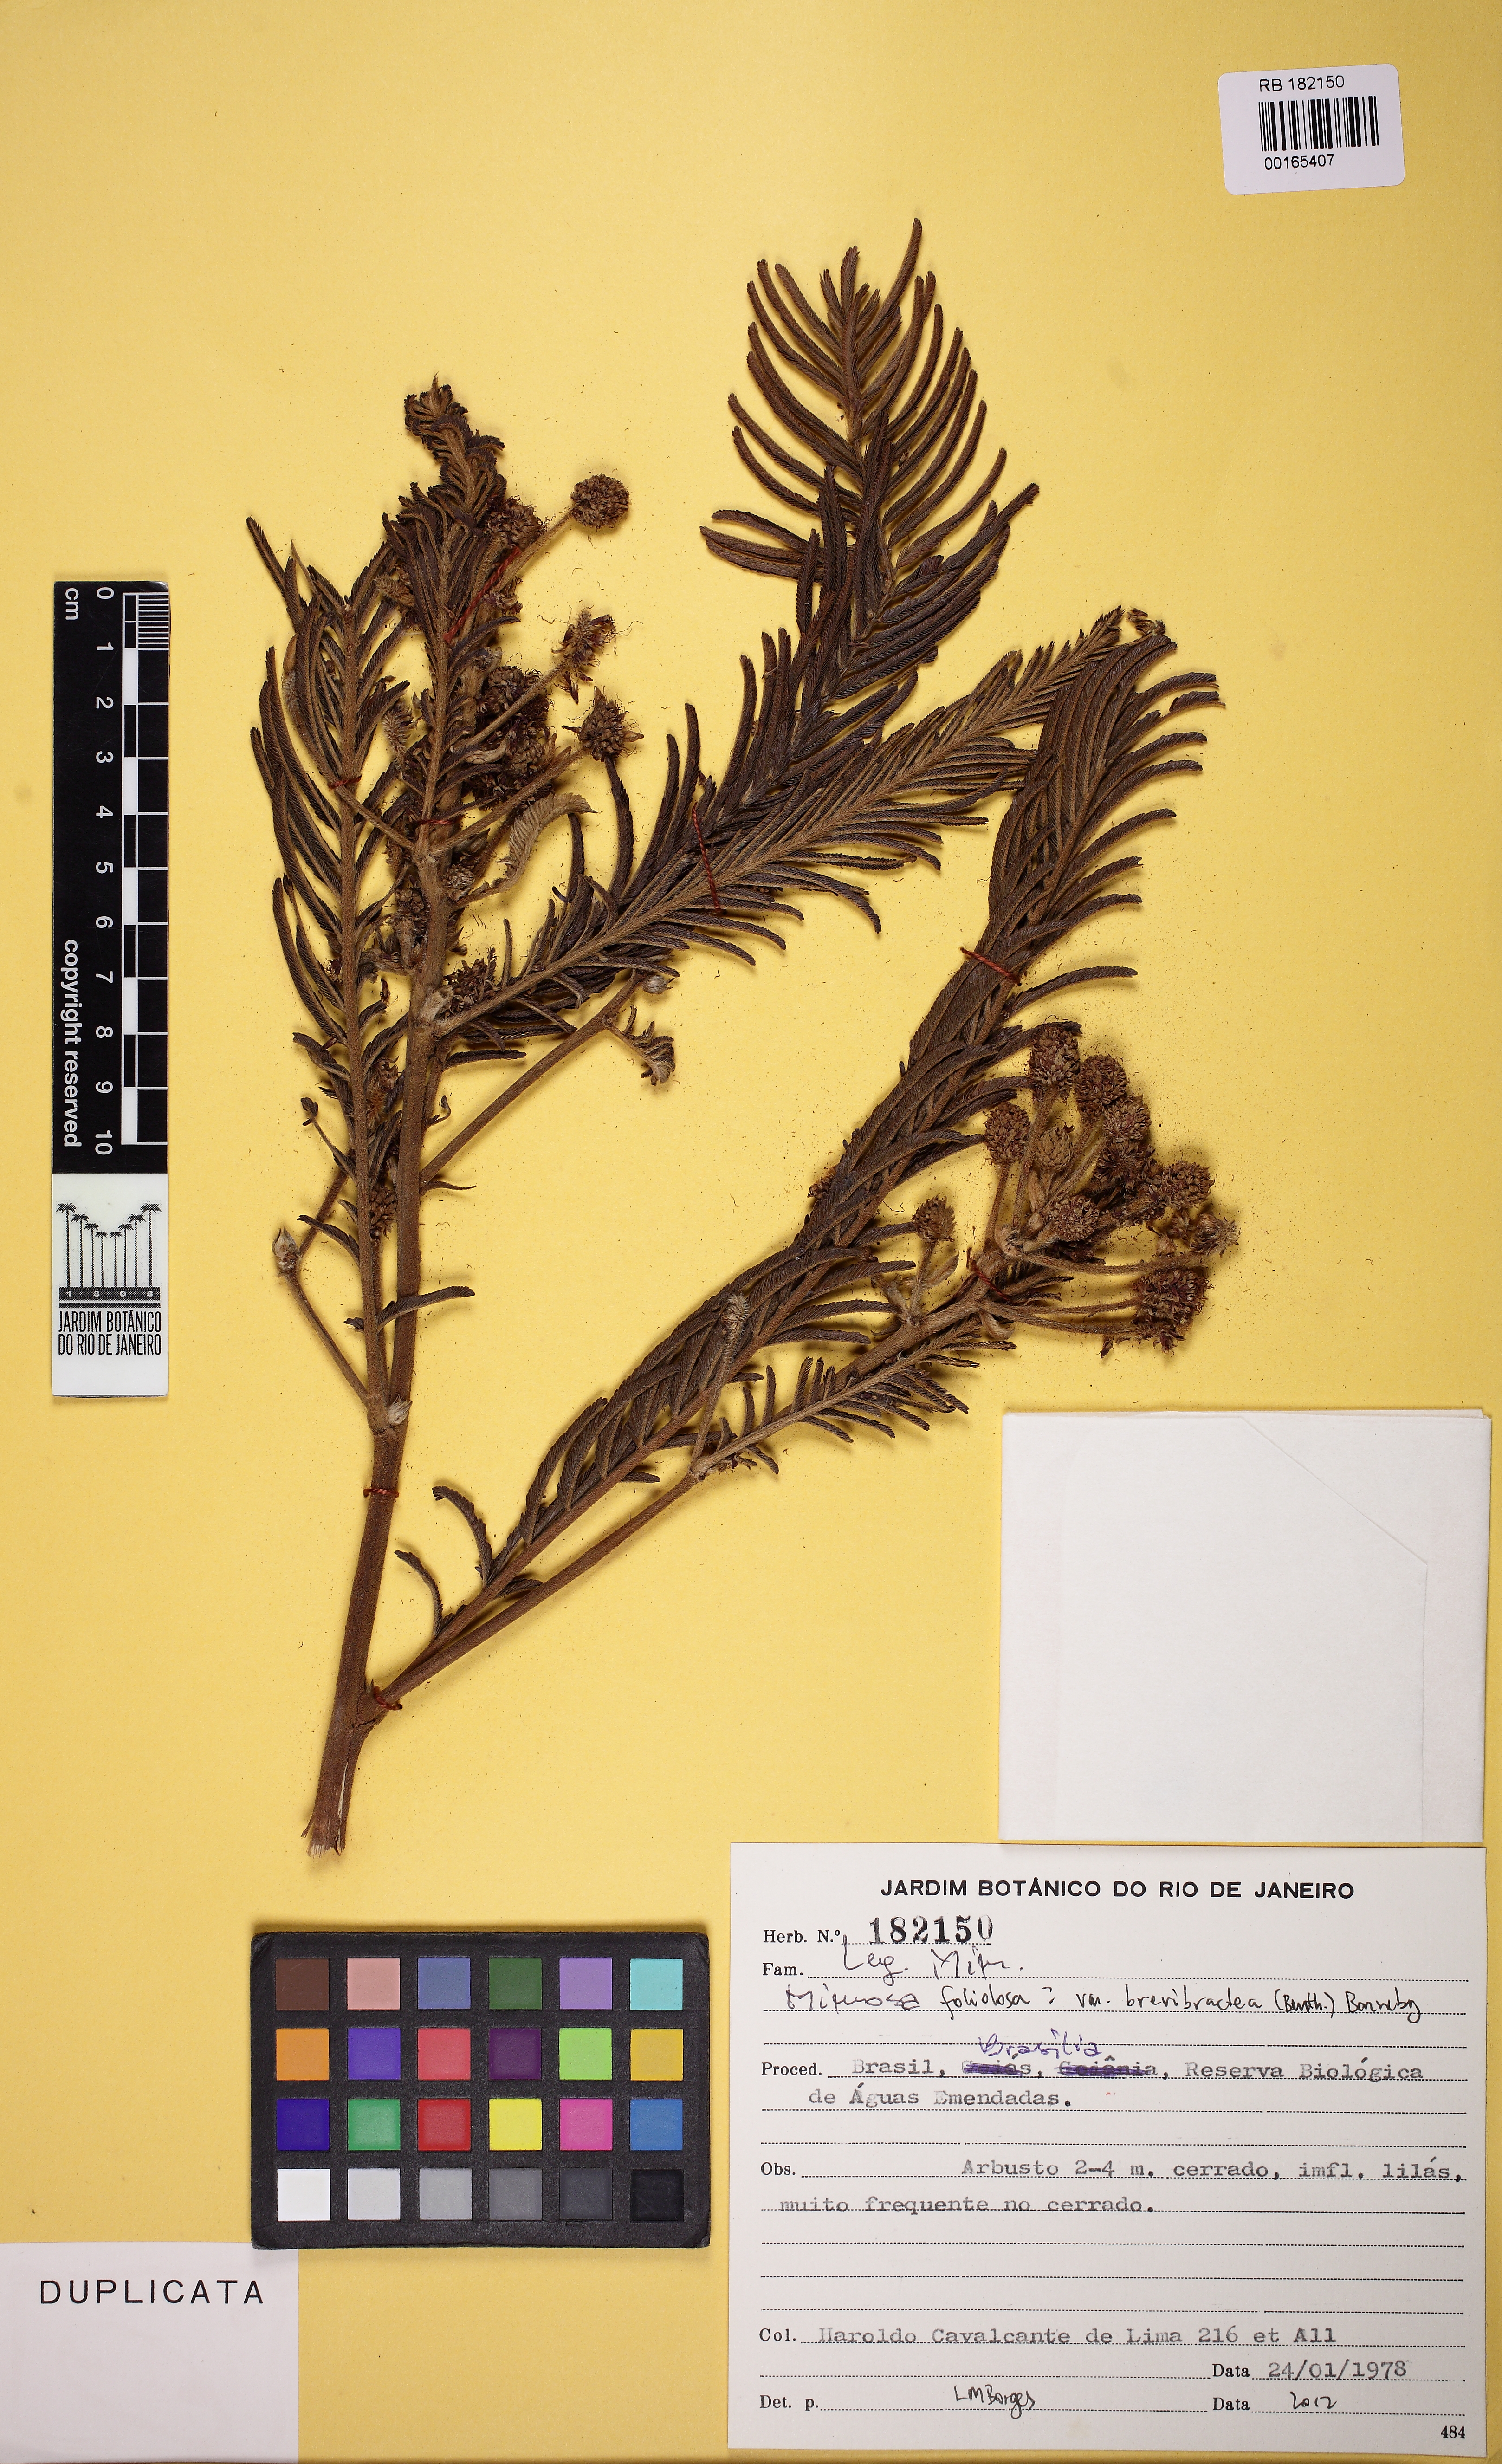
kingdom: Plantae
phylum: Tracheophyta
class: Magnoliopsida
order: Fabales
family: Fabaceae
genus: Mimosa
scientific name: Mimosa foliolosa
